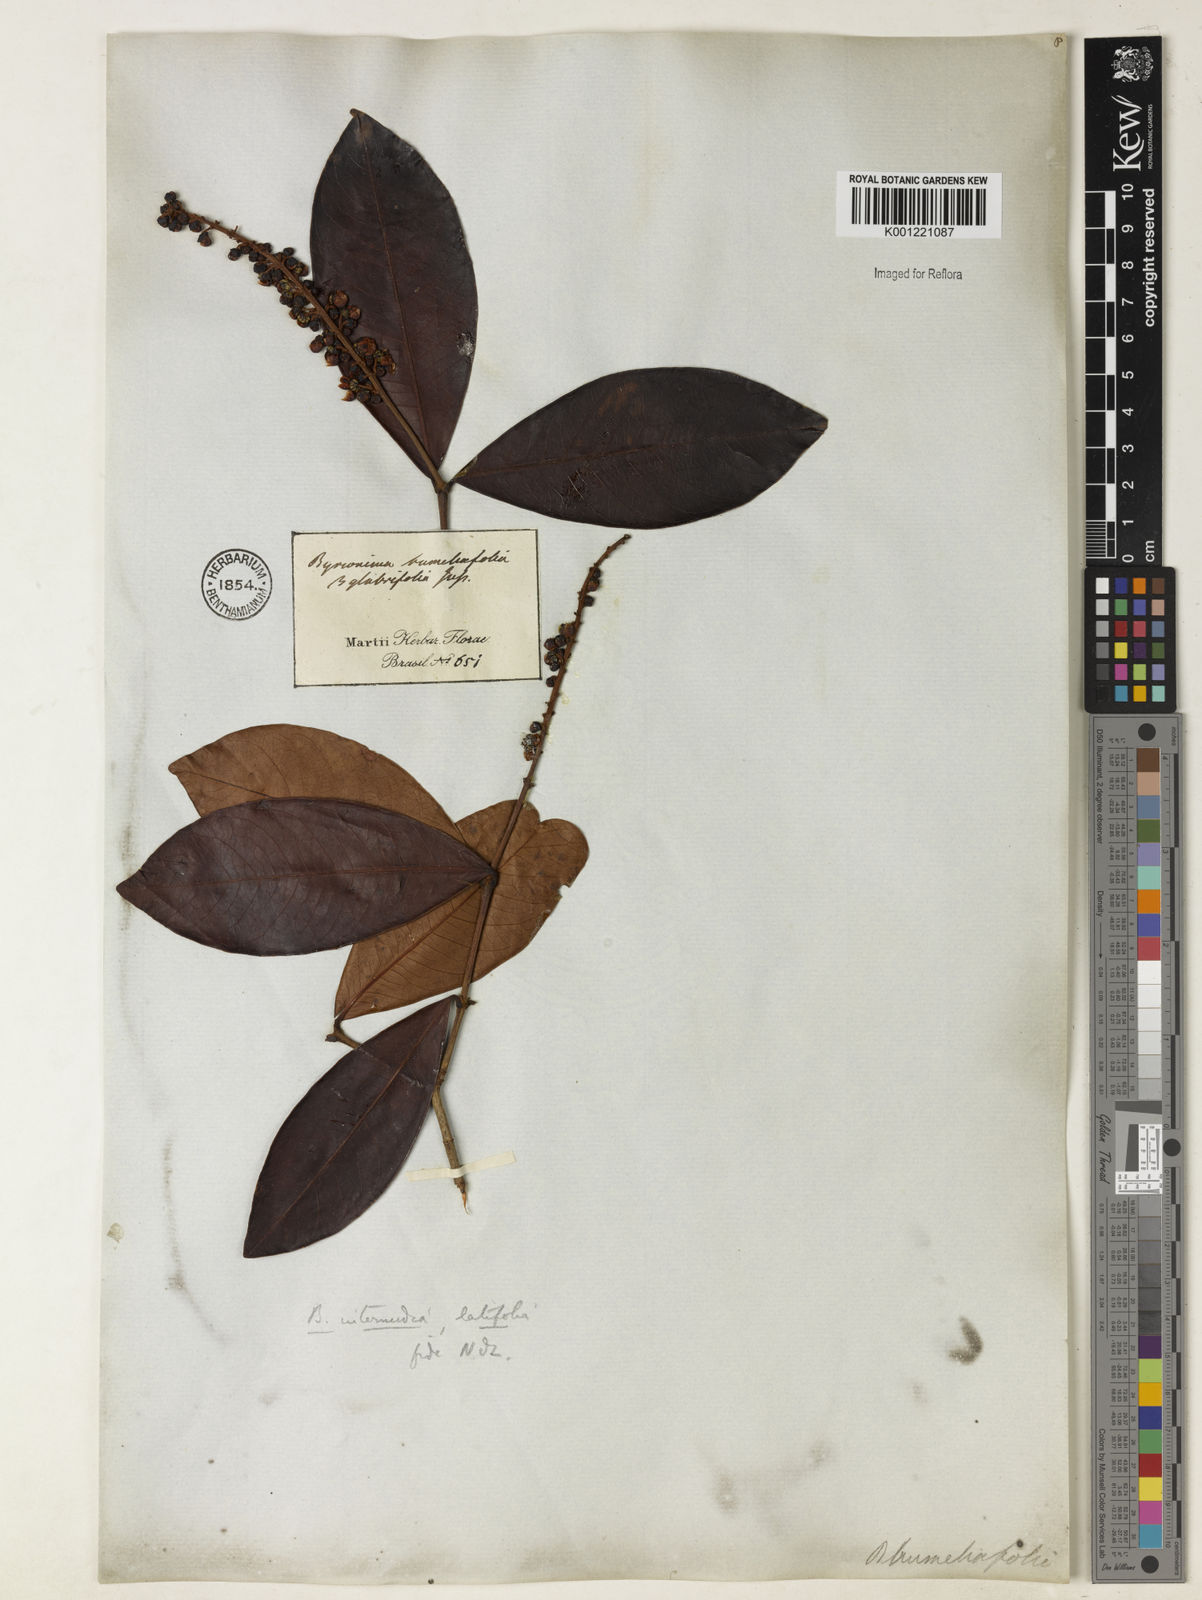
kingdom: Plantae
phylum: Tracheophyta
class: Magnoliopsida
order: Malpighiales
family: Malpighiaceae
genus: Byrsonima
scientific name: Byrsonima intermedia
